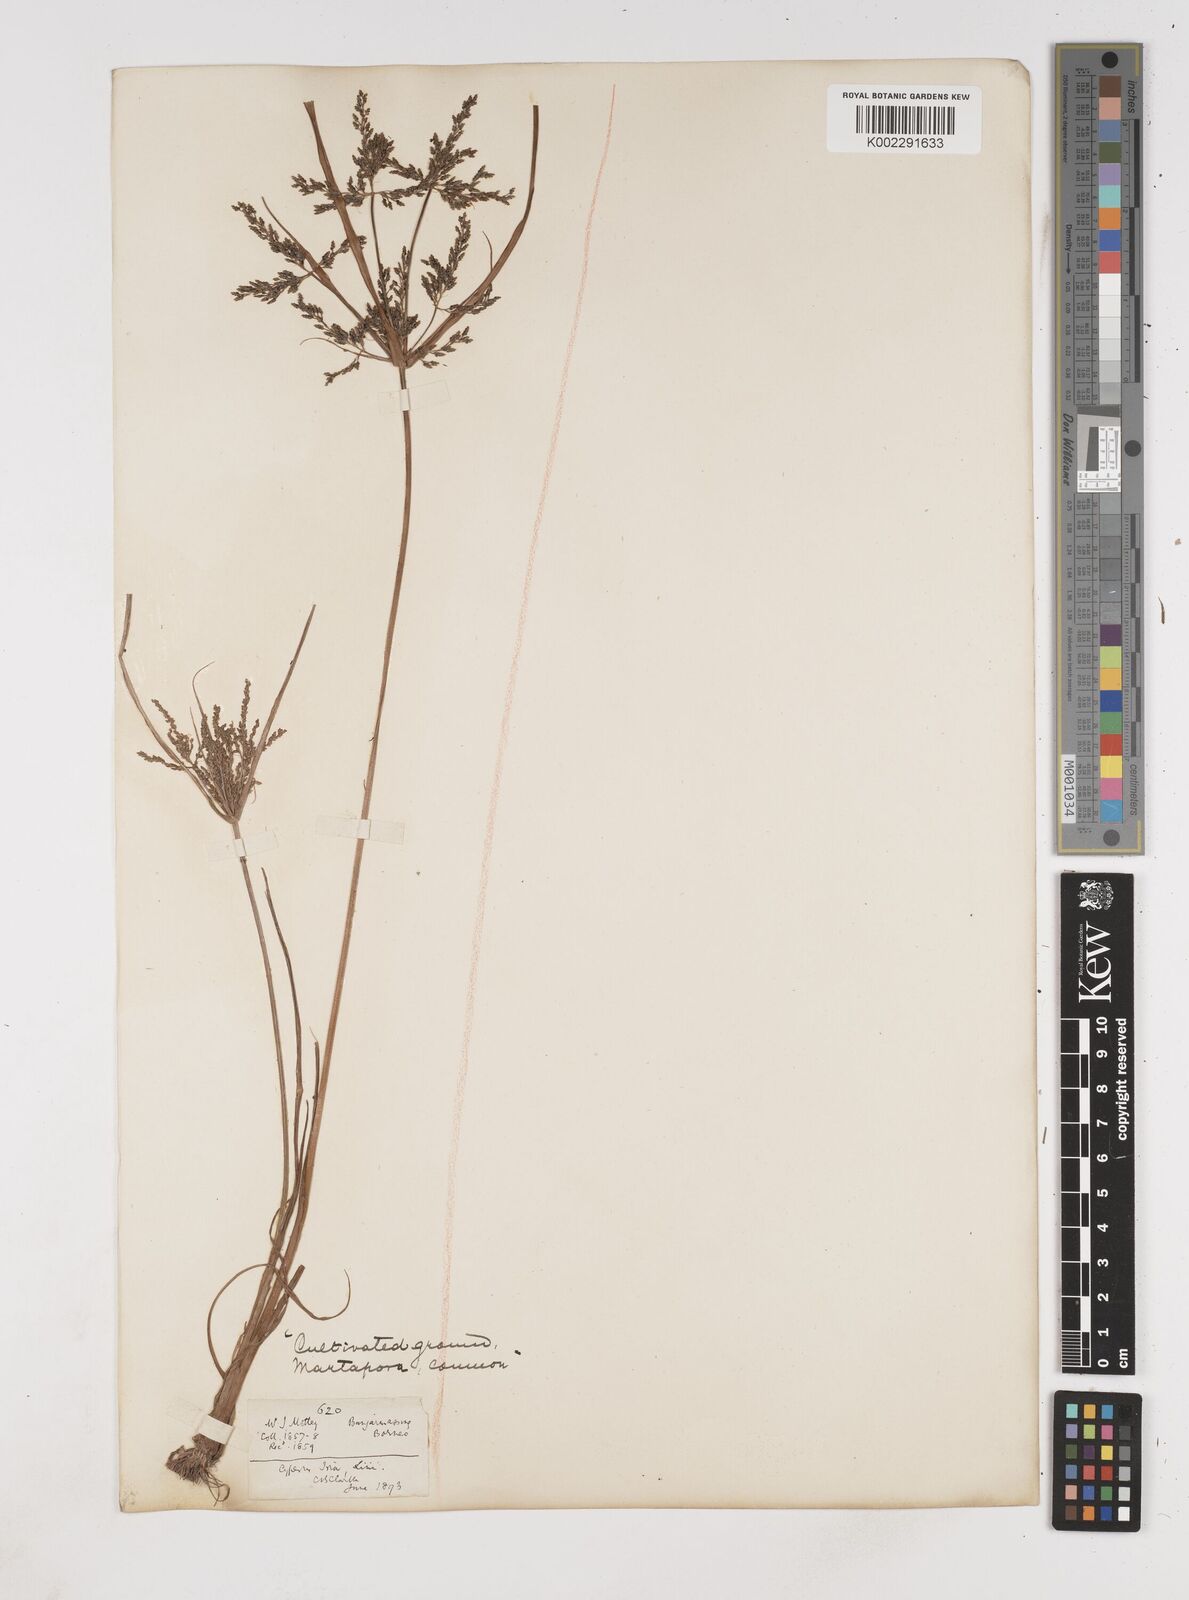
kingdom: Plantae
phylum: Tracheophyta
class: Liliopsida
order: Poales
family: Cyperaceae
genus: Cyperus
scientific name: Cyperus iria
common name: Ricefield flatsedge
